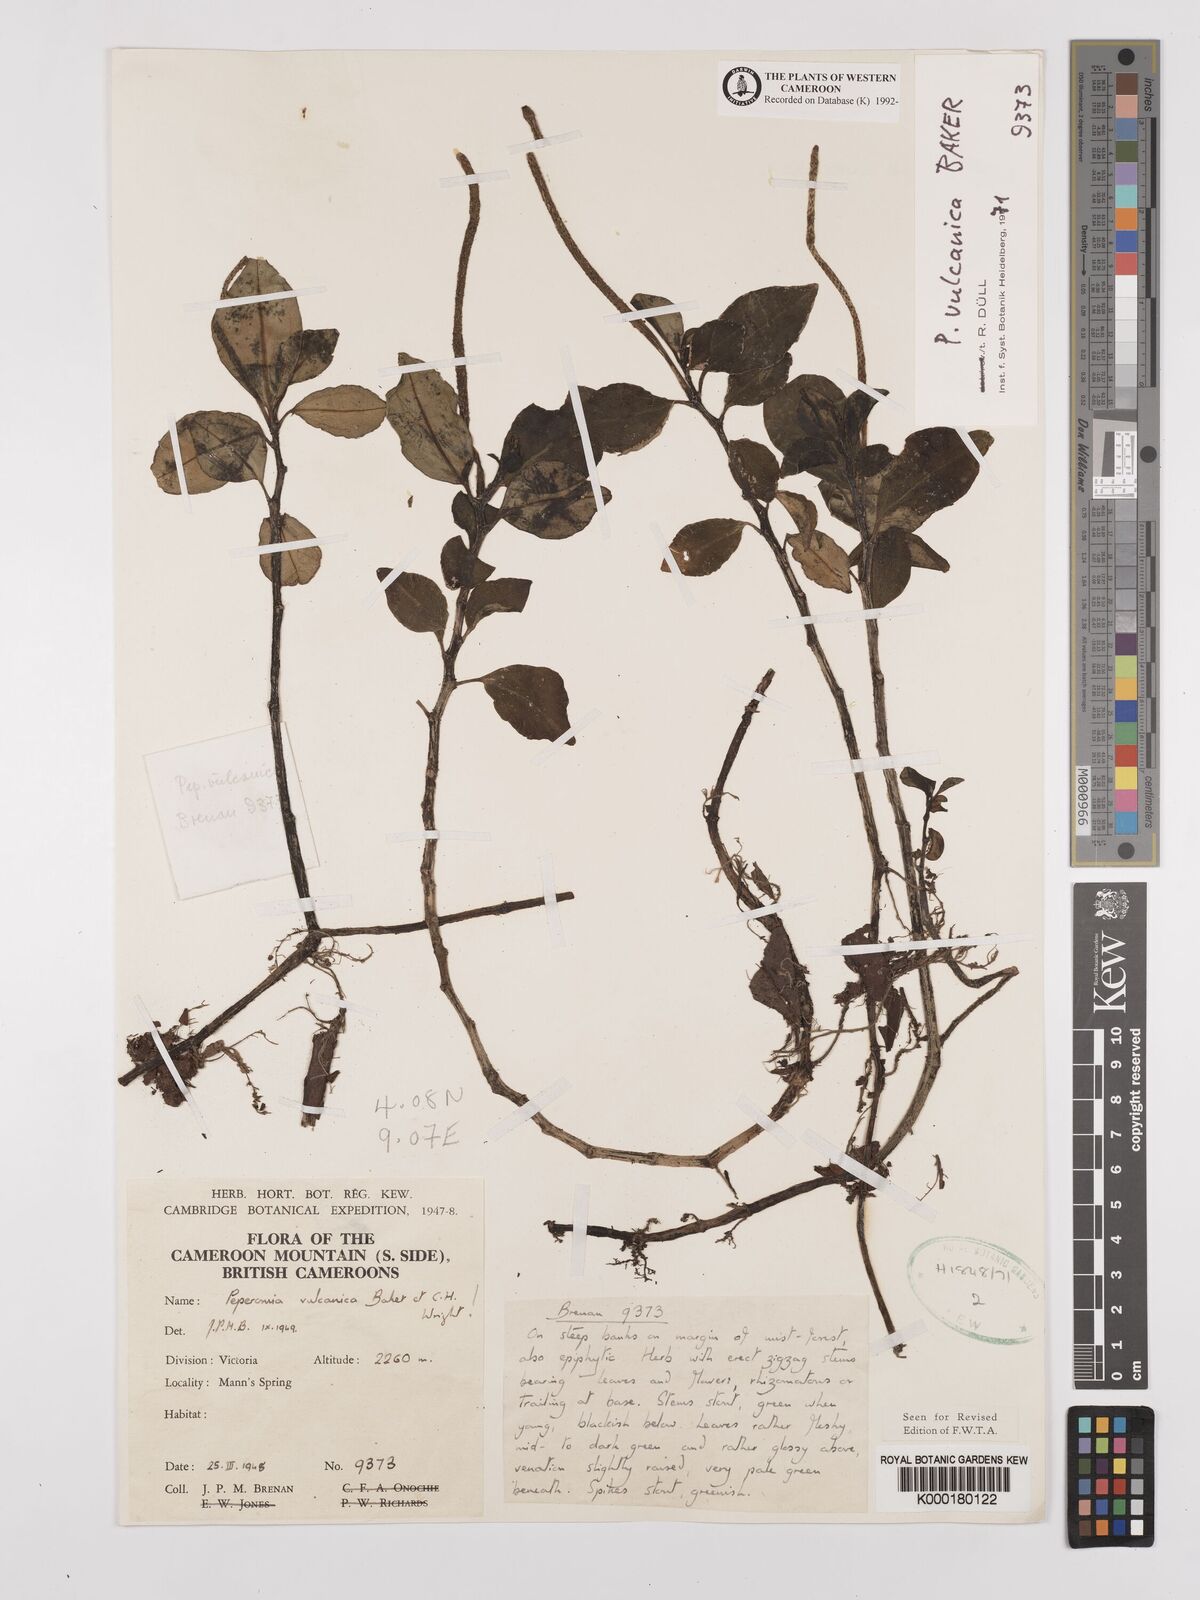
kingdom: Plantae
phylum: Tracheophyta
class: Magnoliopsida
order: Piperales
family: Piperaceae
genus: Peperomia
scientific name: Peperomia vulcanica
